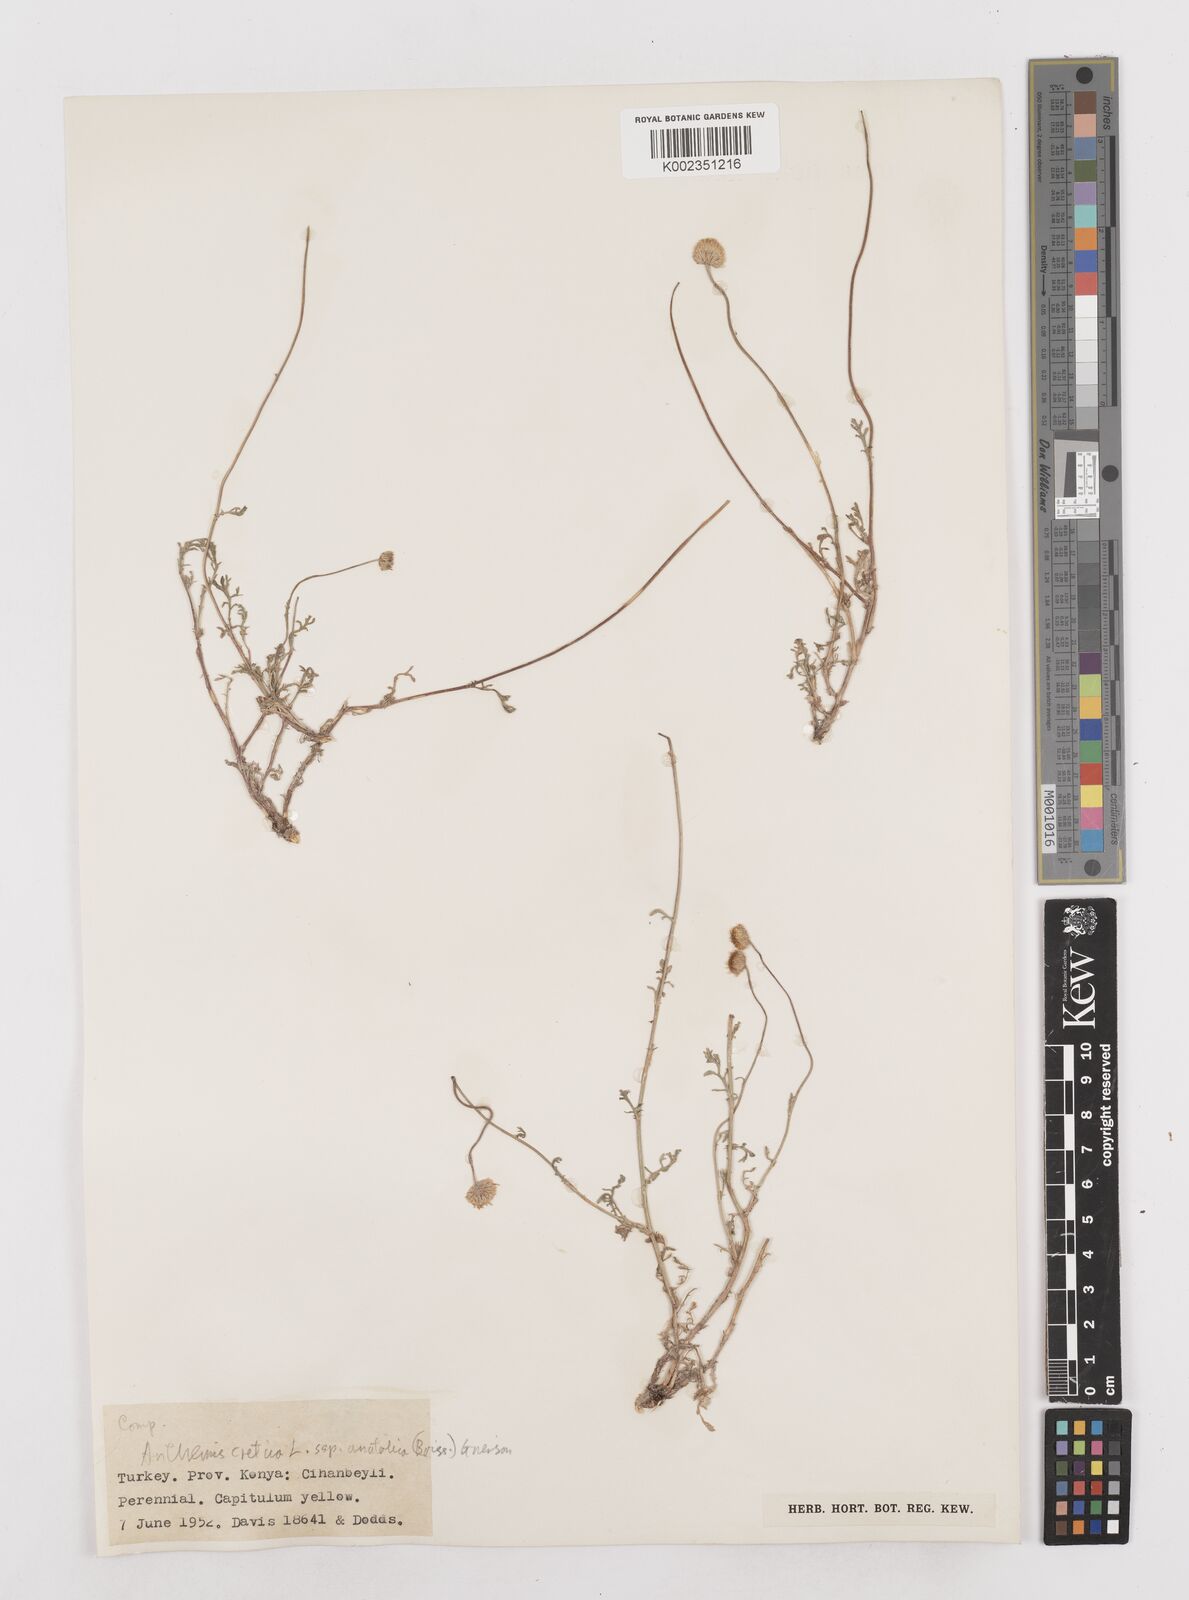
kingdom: Plantae
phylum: Tracheophyta
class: Magnoliopsida
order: Asterales
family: Asteraceae
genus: Anthemis
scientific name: Anthemis cretica
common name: Mountain dog-daisy
